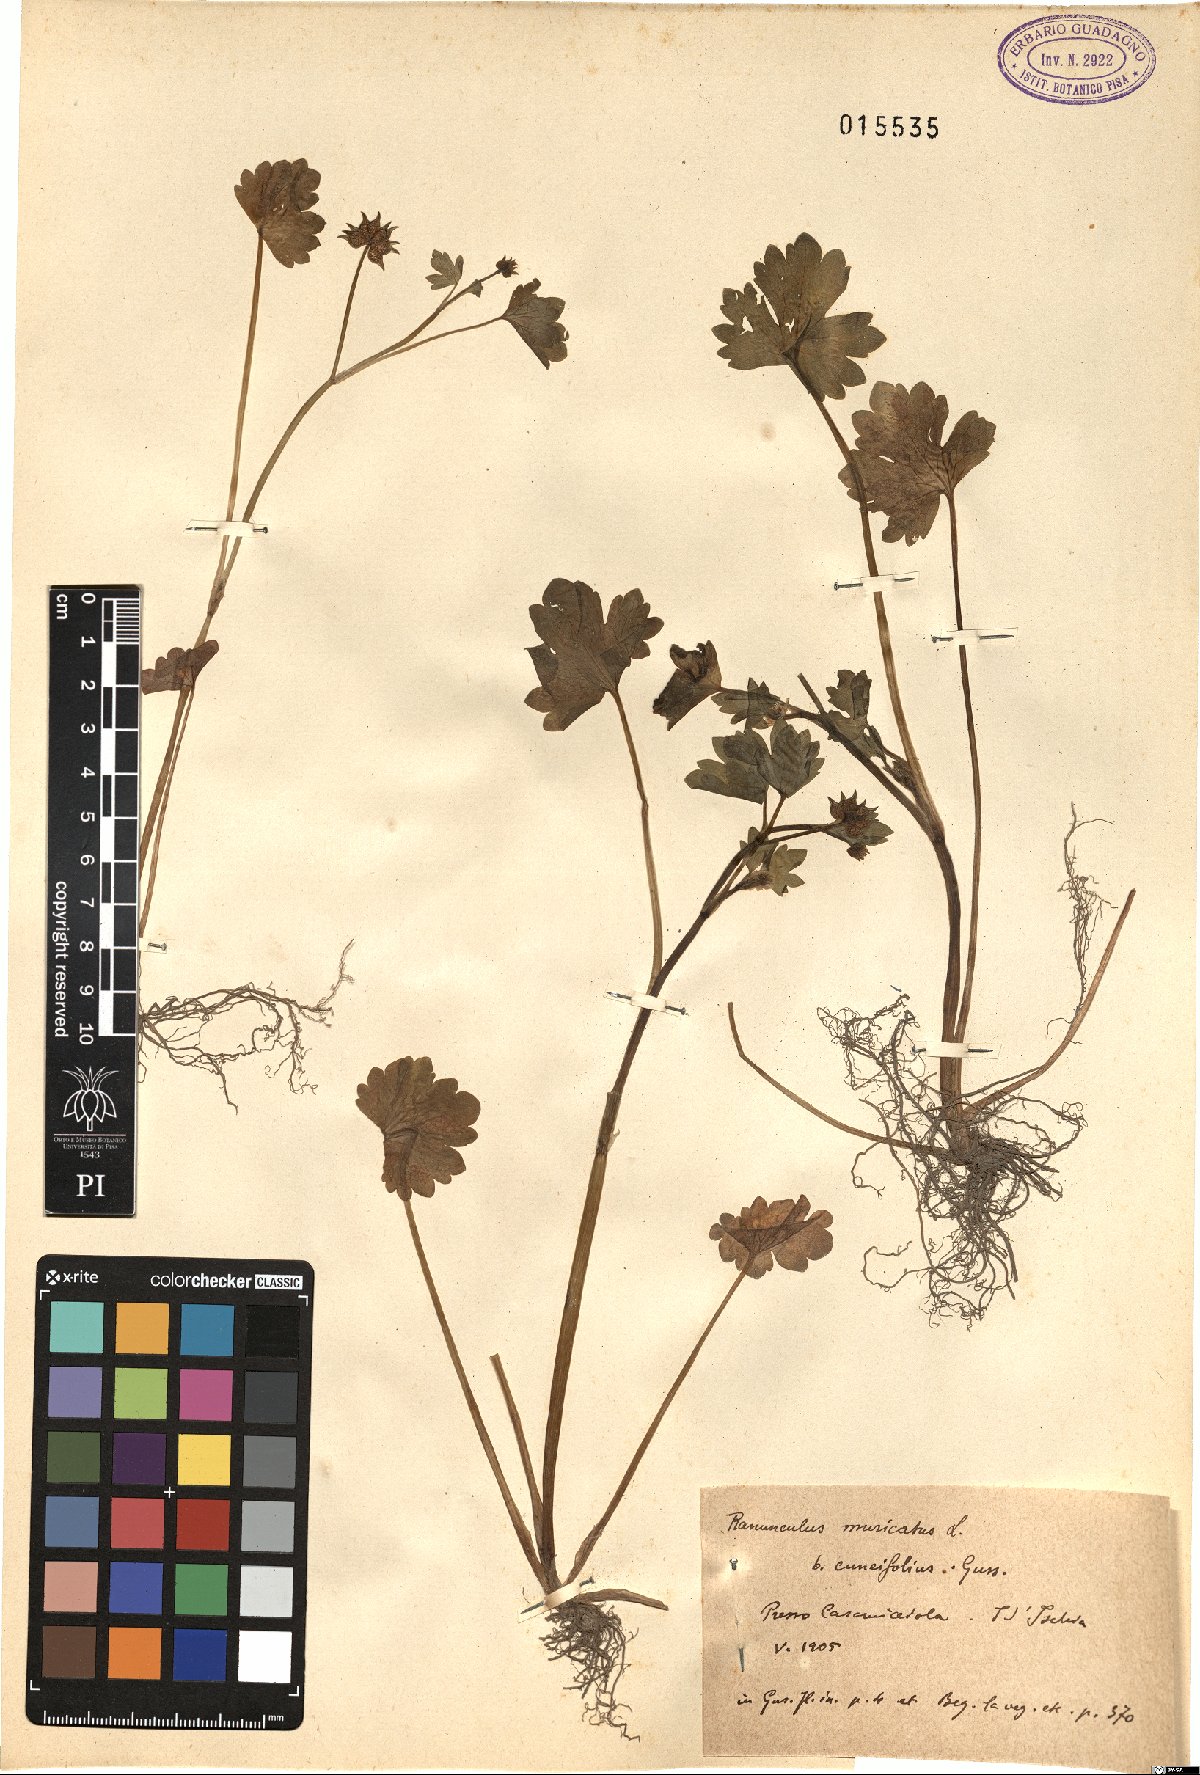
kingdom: Plantae
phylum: Tracheophyta
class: Magnoliopsida
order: Ranunculales
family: Ranunculaceae
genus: Ranunculus
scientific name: Ranunculus muricatus
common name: Rough-fruited buttercup
